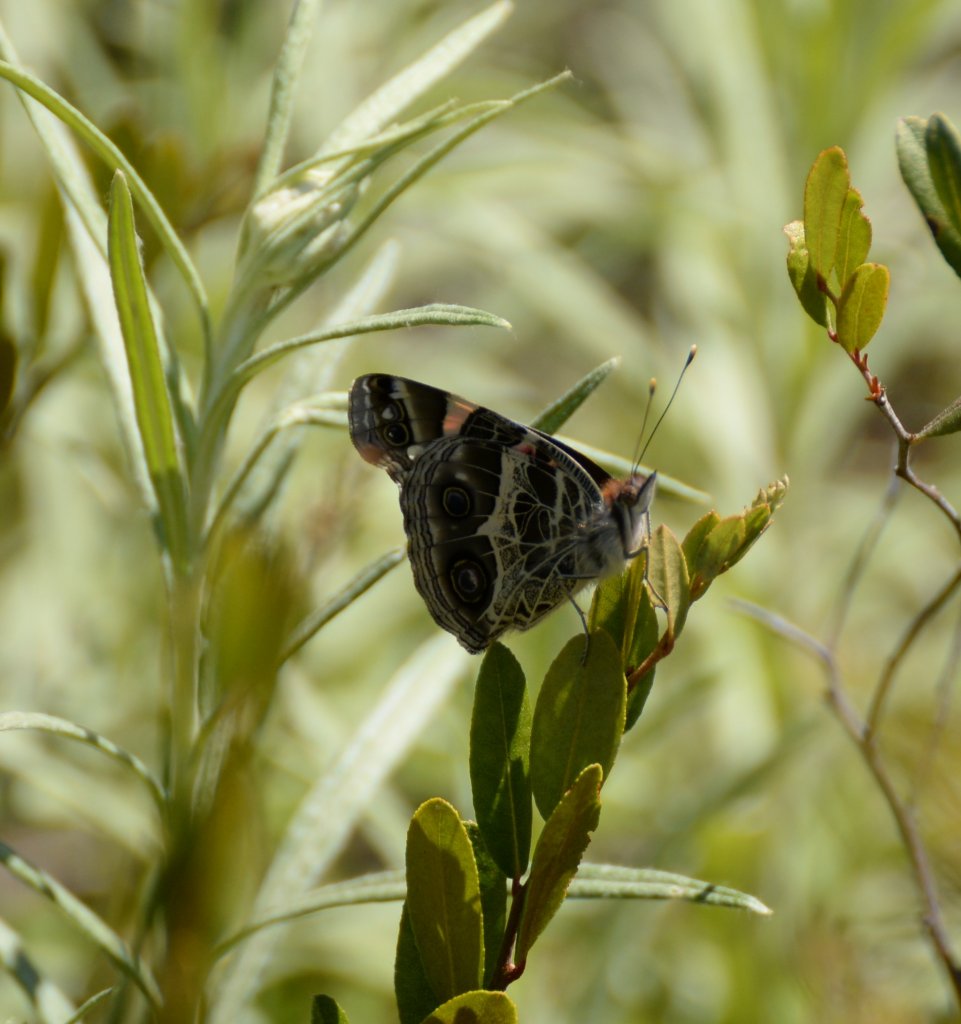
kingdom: Animalia
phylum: Arthropoda
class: Insecta
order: Lepidoptera
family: Nymphalidae
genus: Vanessa
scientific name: Vanessa virginiensis
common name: American Lady
